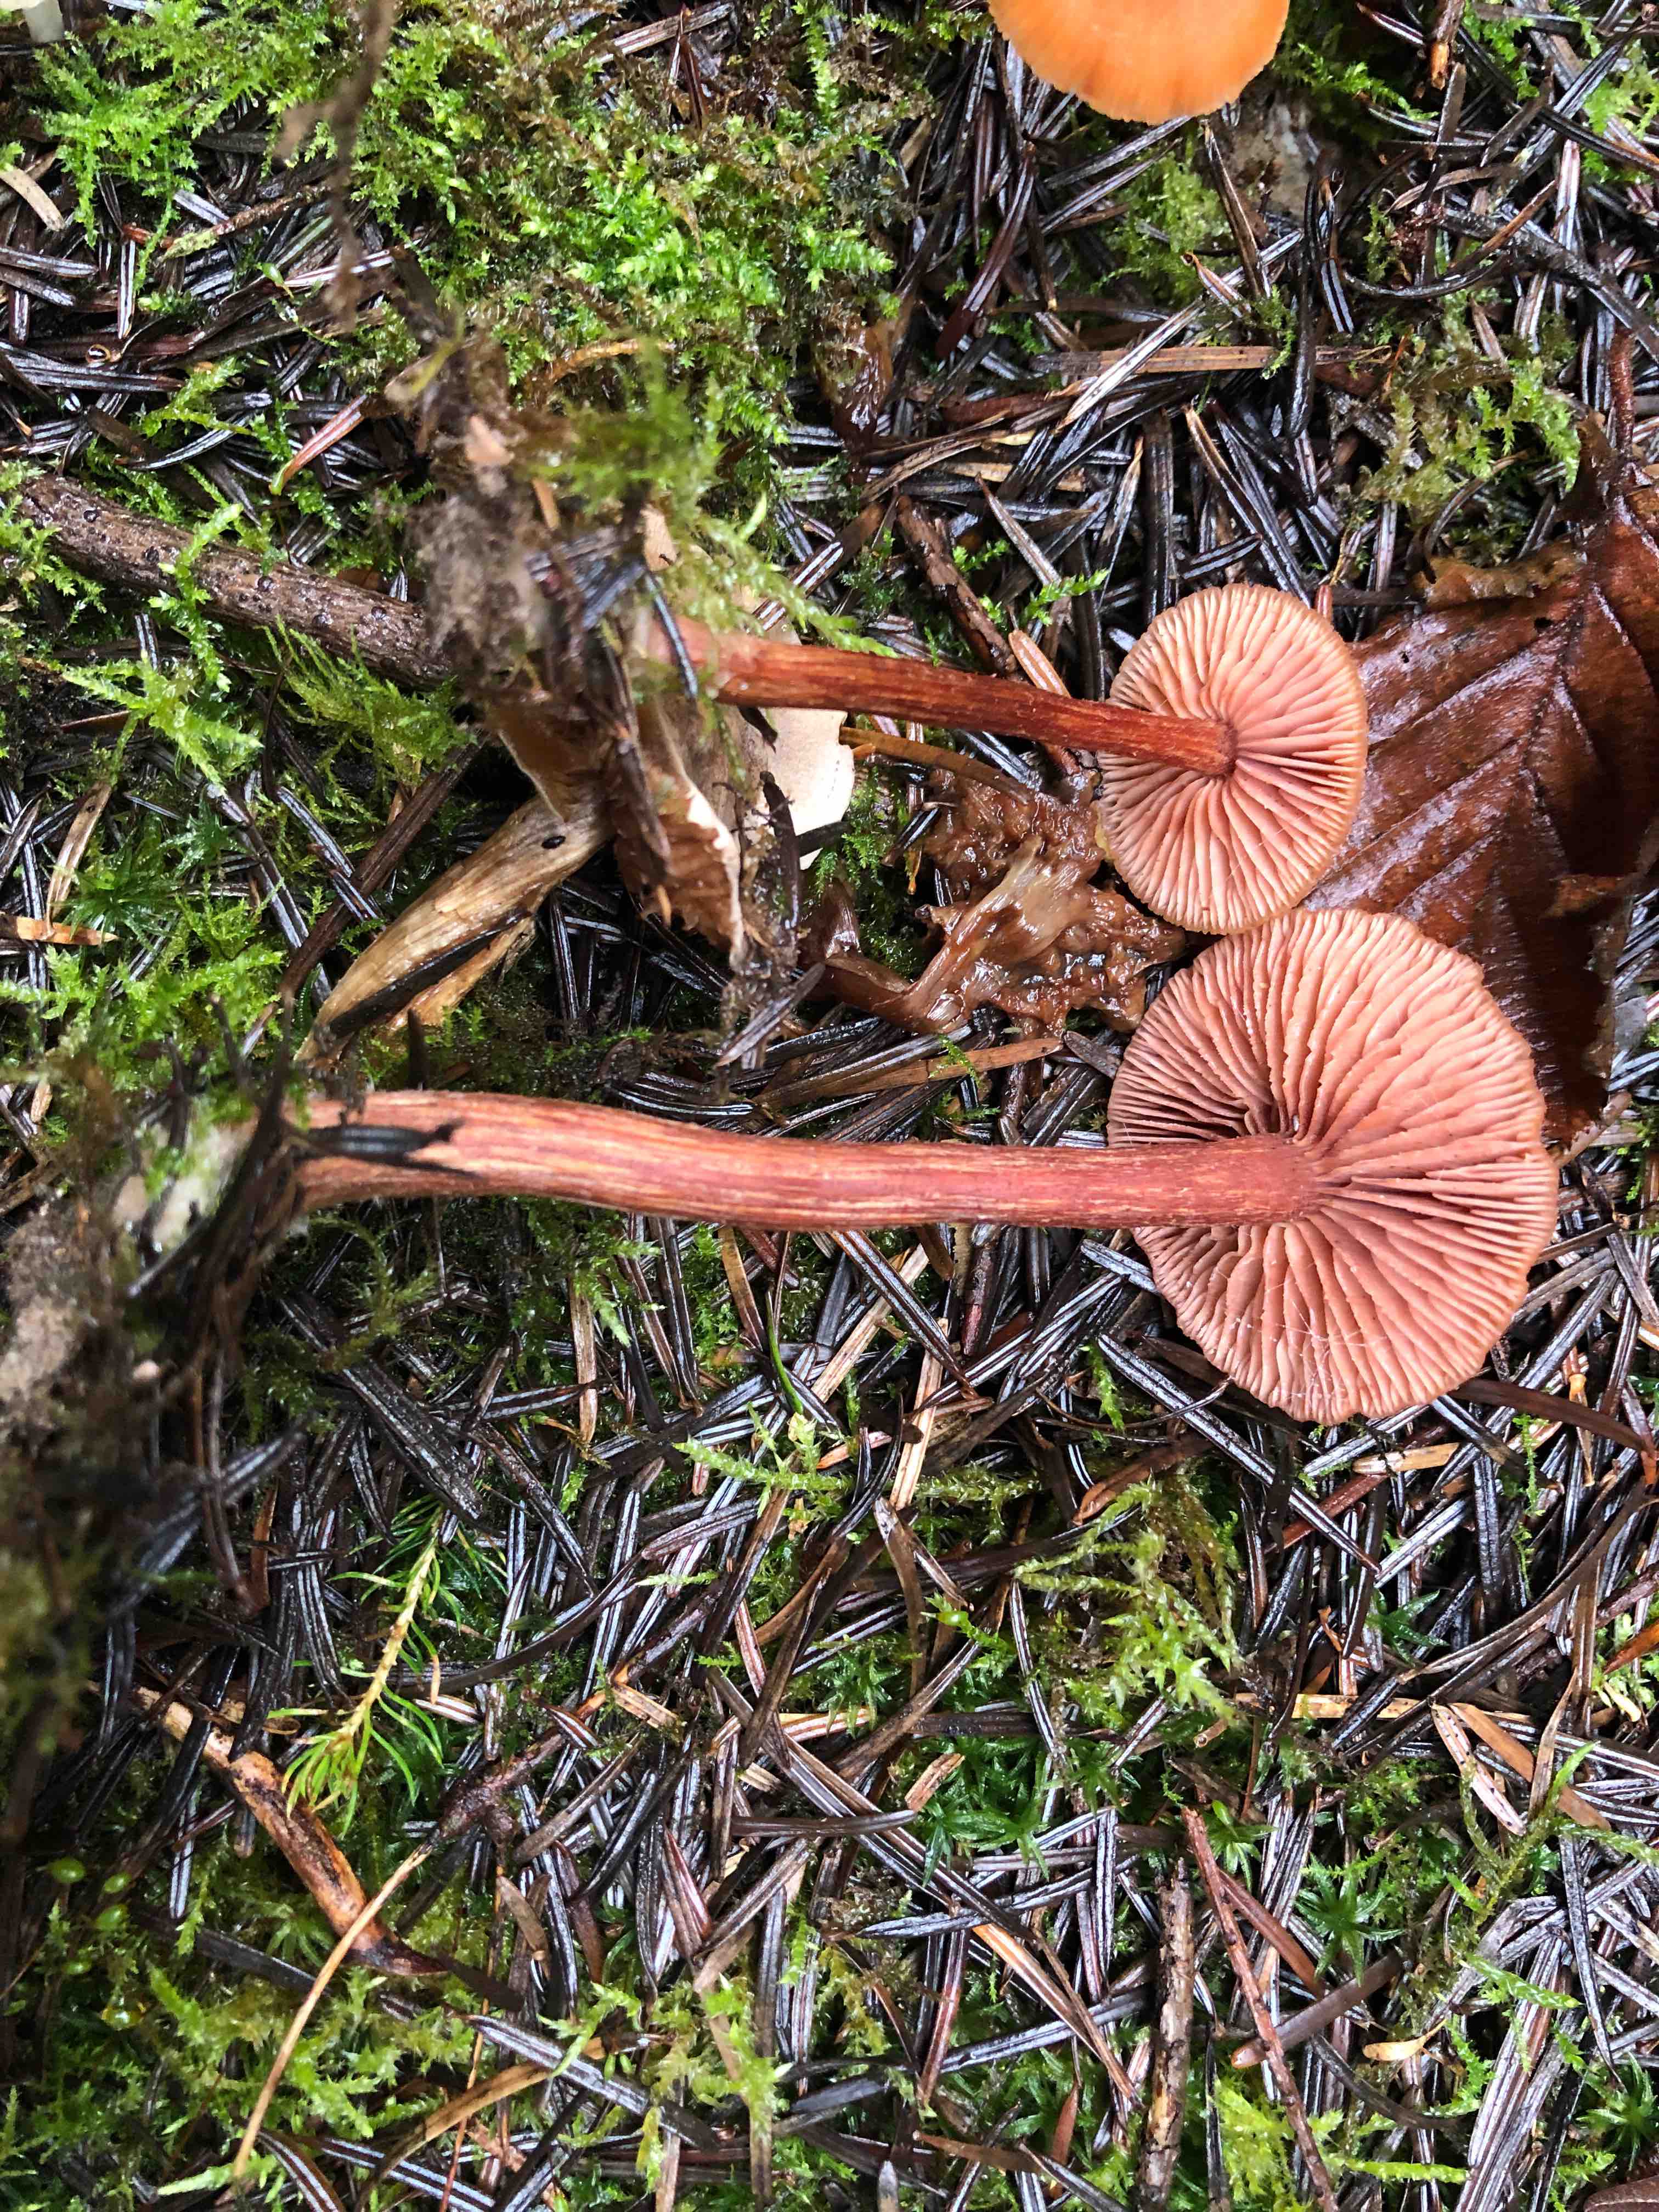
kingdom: Fungi
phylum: Basidiomycota
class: Agaricomycetes
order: Agaricales
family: Hydnangiaceae
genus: Laccaria
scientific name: Laccaria proxima
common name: stor ametysthat
